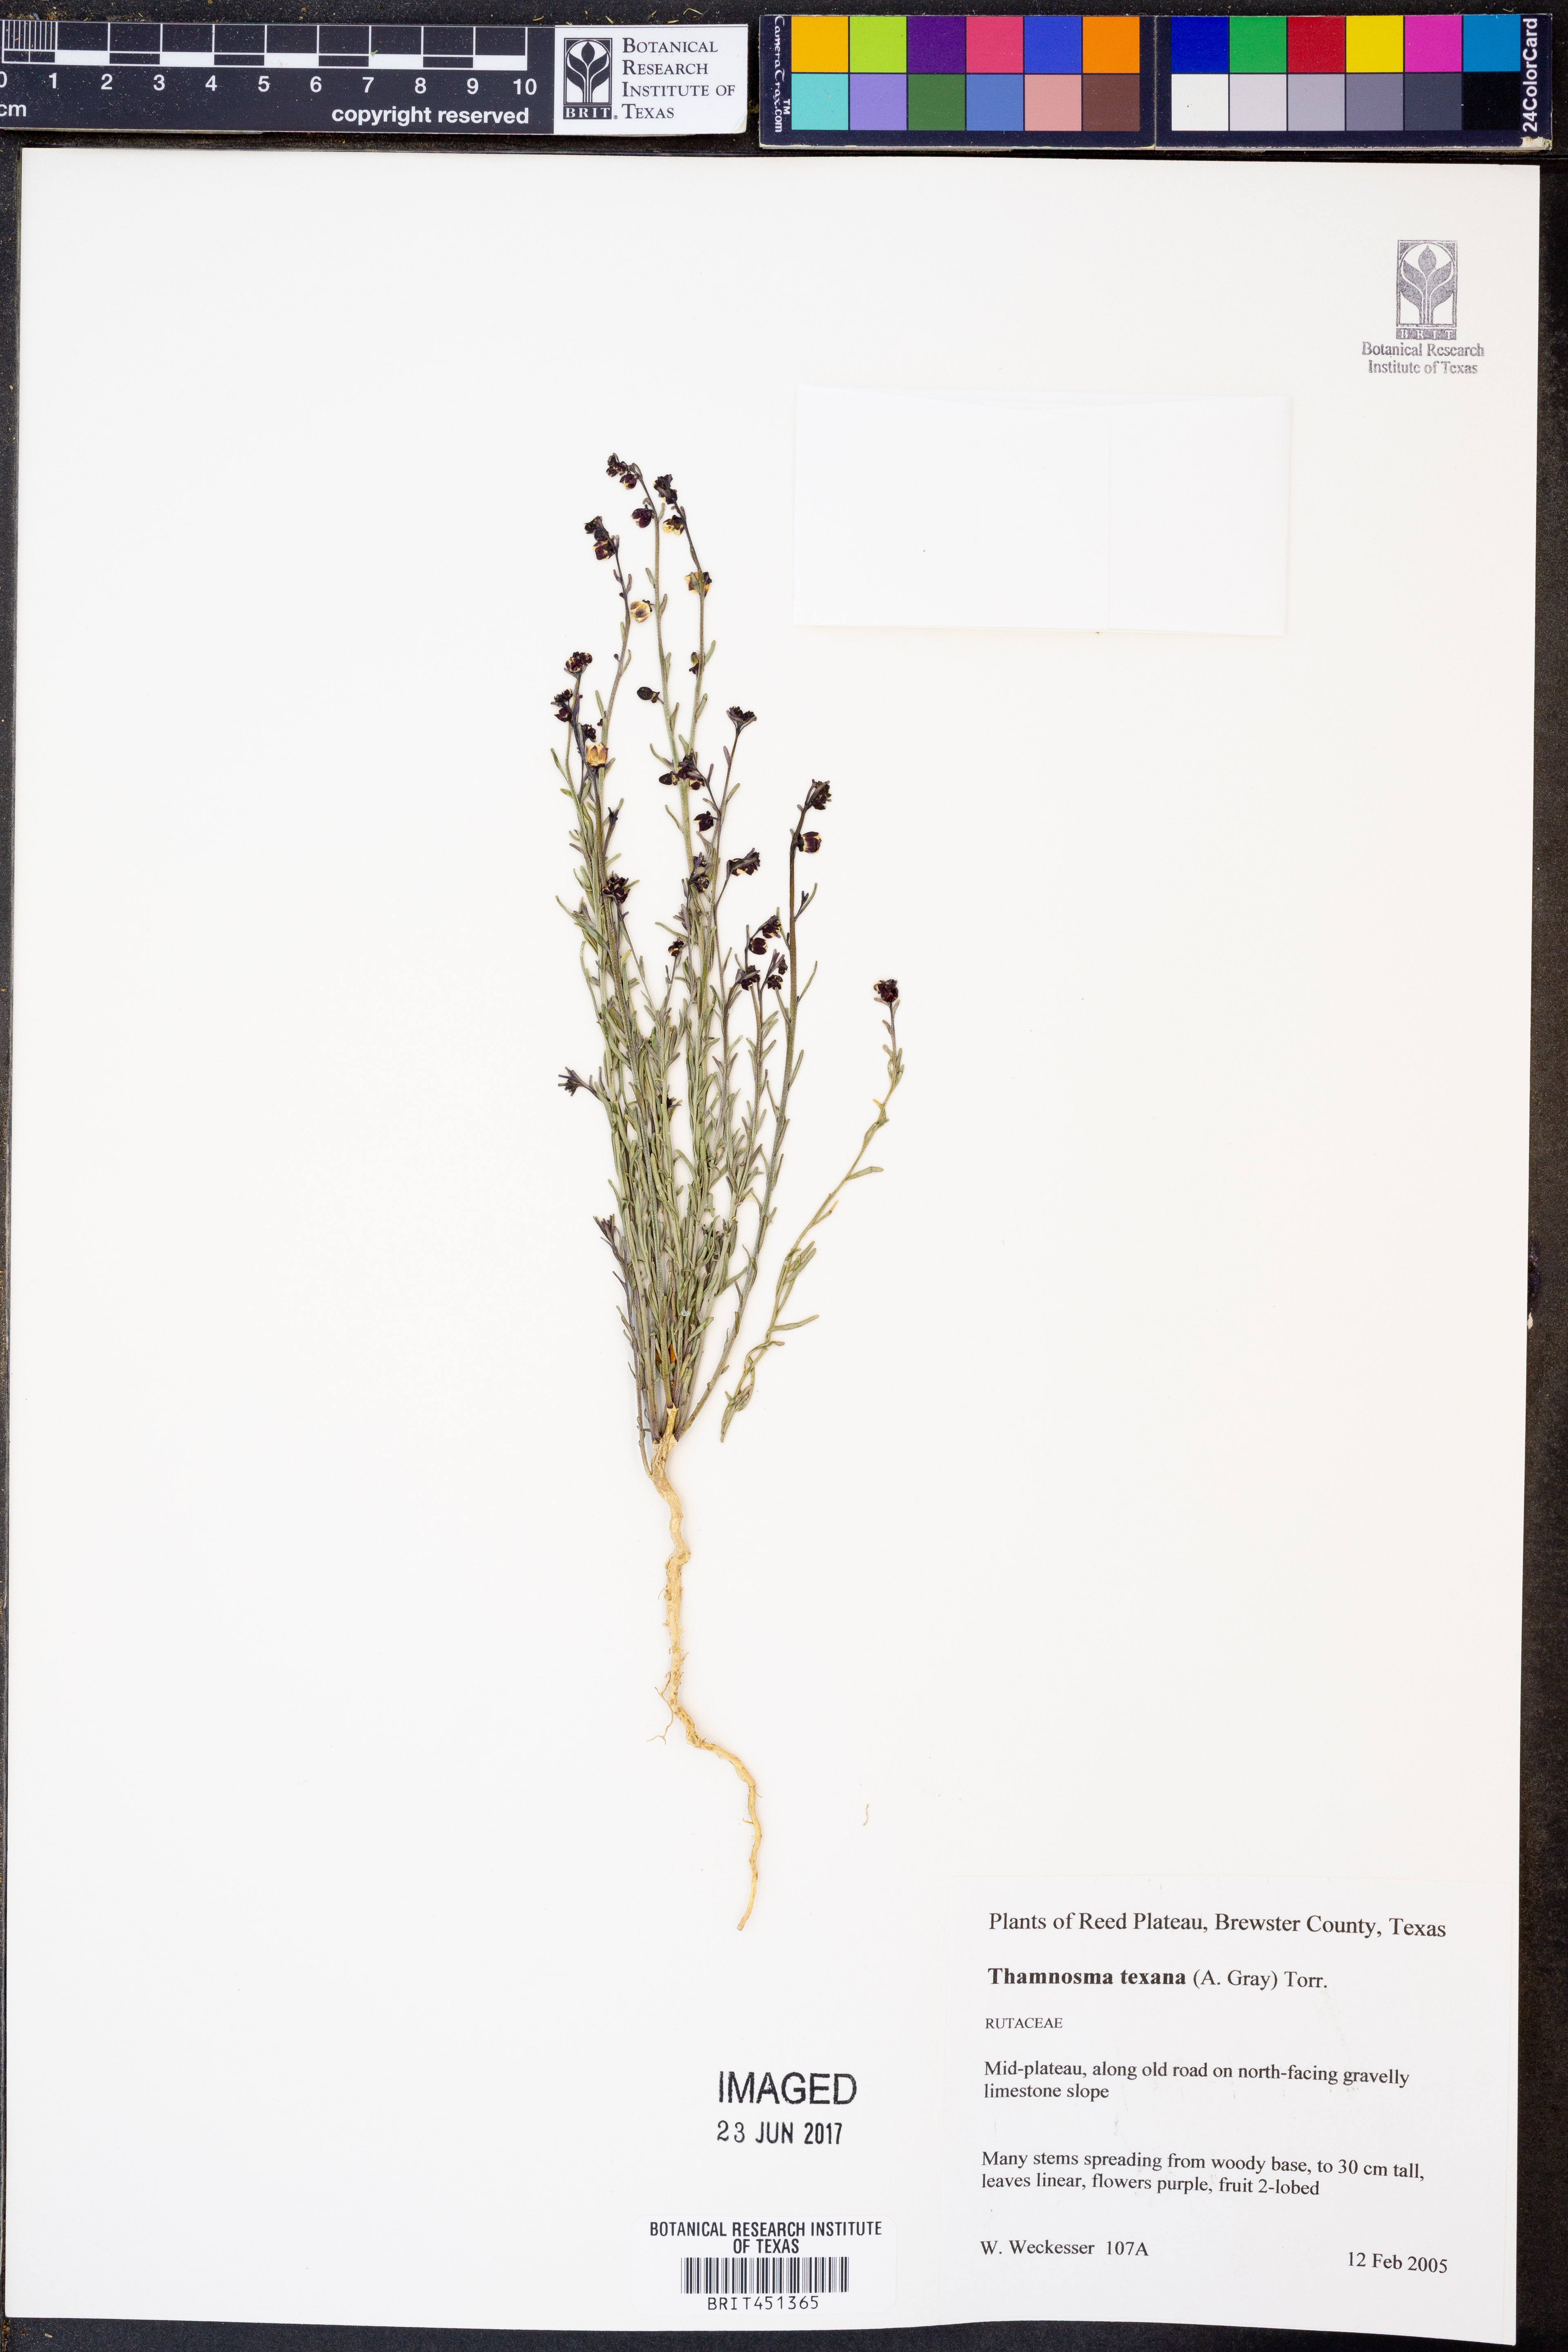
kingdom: Plantae
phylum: Tracheophyta
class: Magnoliopsida
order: Sapindales
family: Rutaceae
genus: Thamnosma
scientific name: Thamnosma texana
